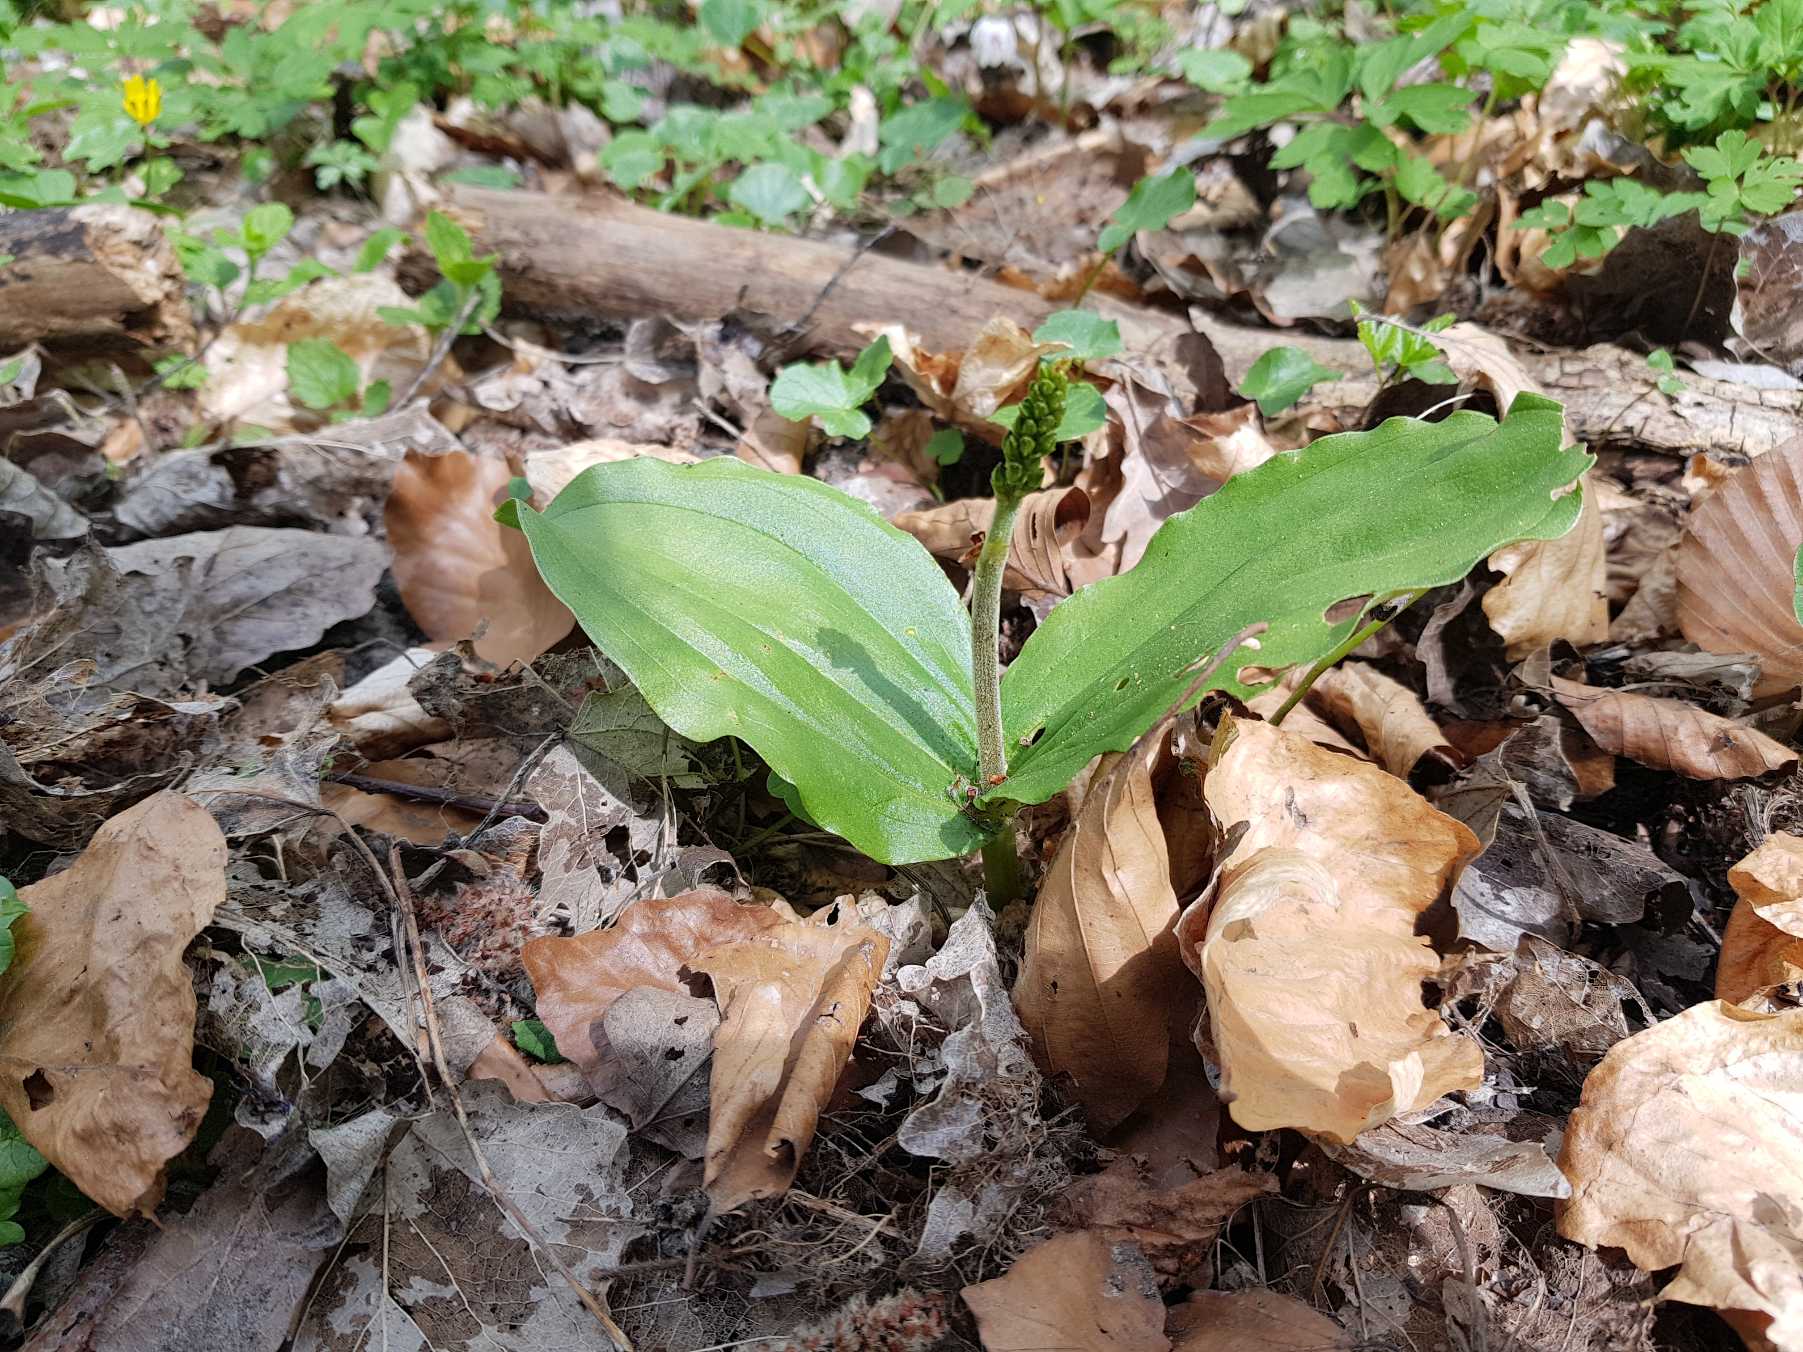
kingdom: Plantae
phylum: Tracheophyta
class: Liliopsida
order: Asparagales
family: Orchidaceae
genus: Neottia
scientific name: Neottia ovata
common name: Ægbladet fliglæbe
